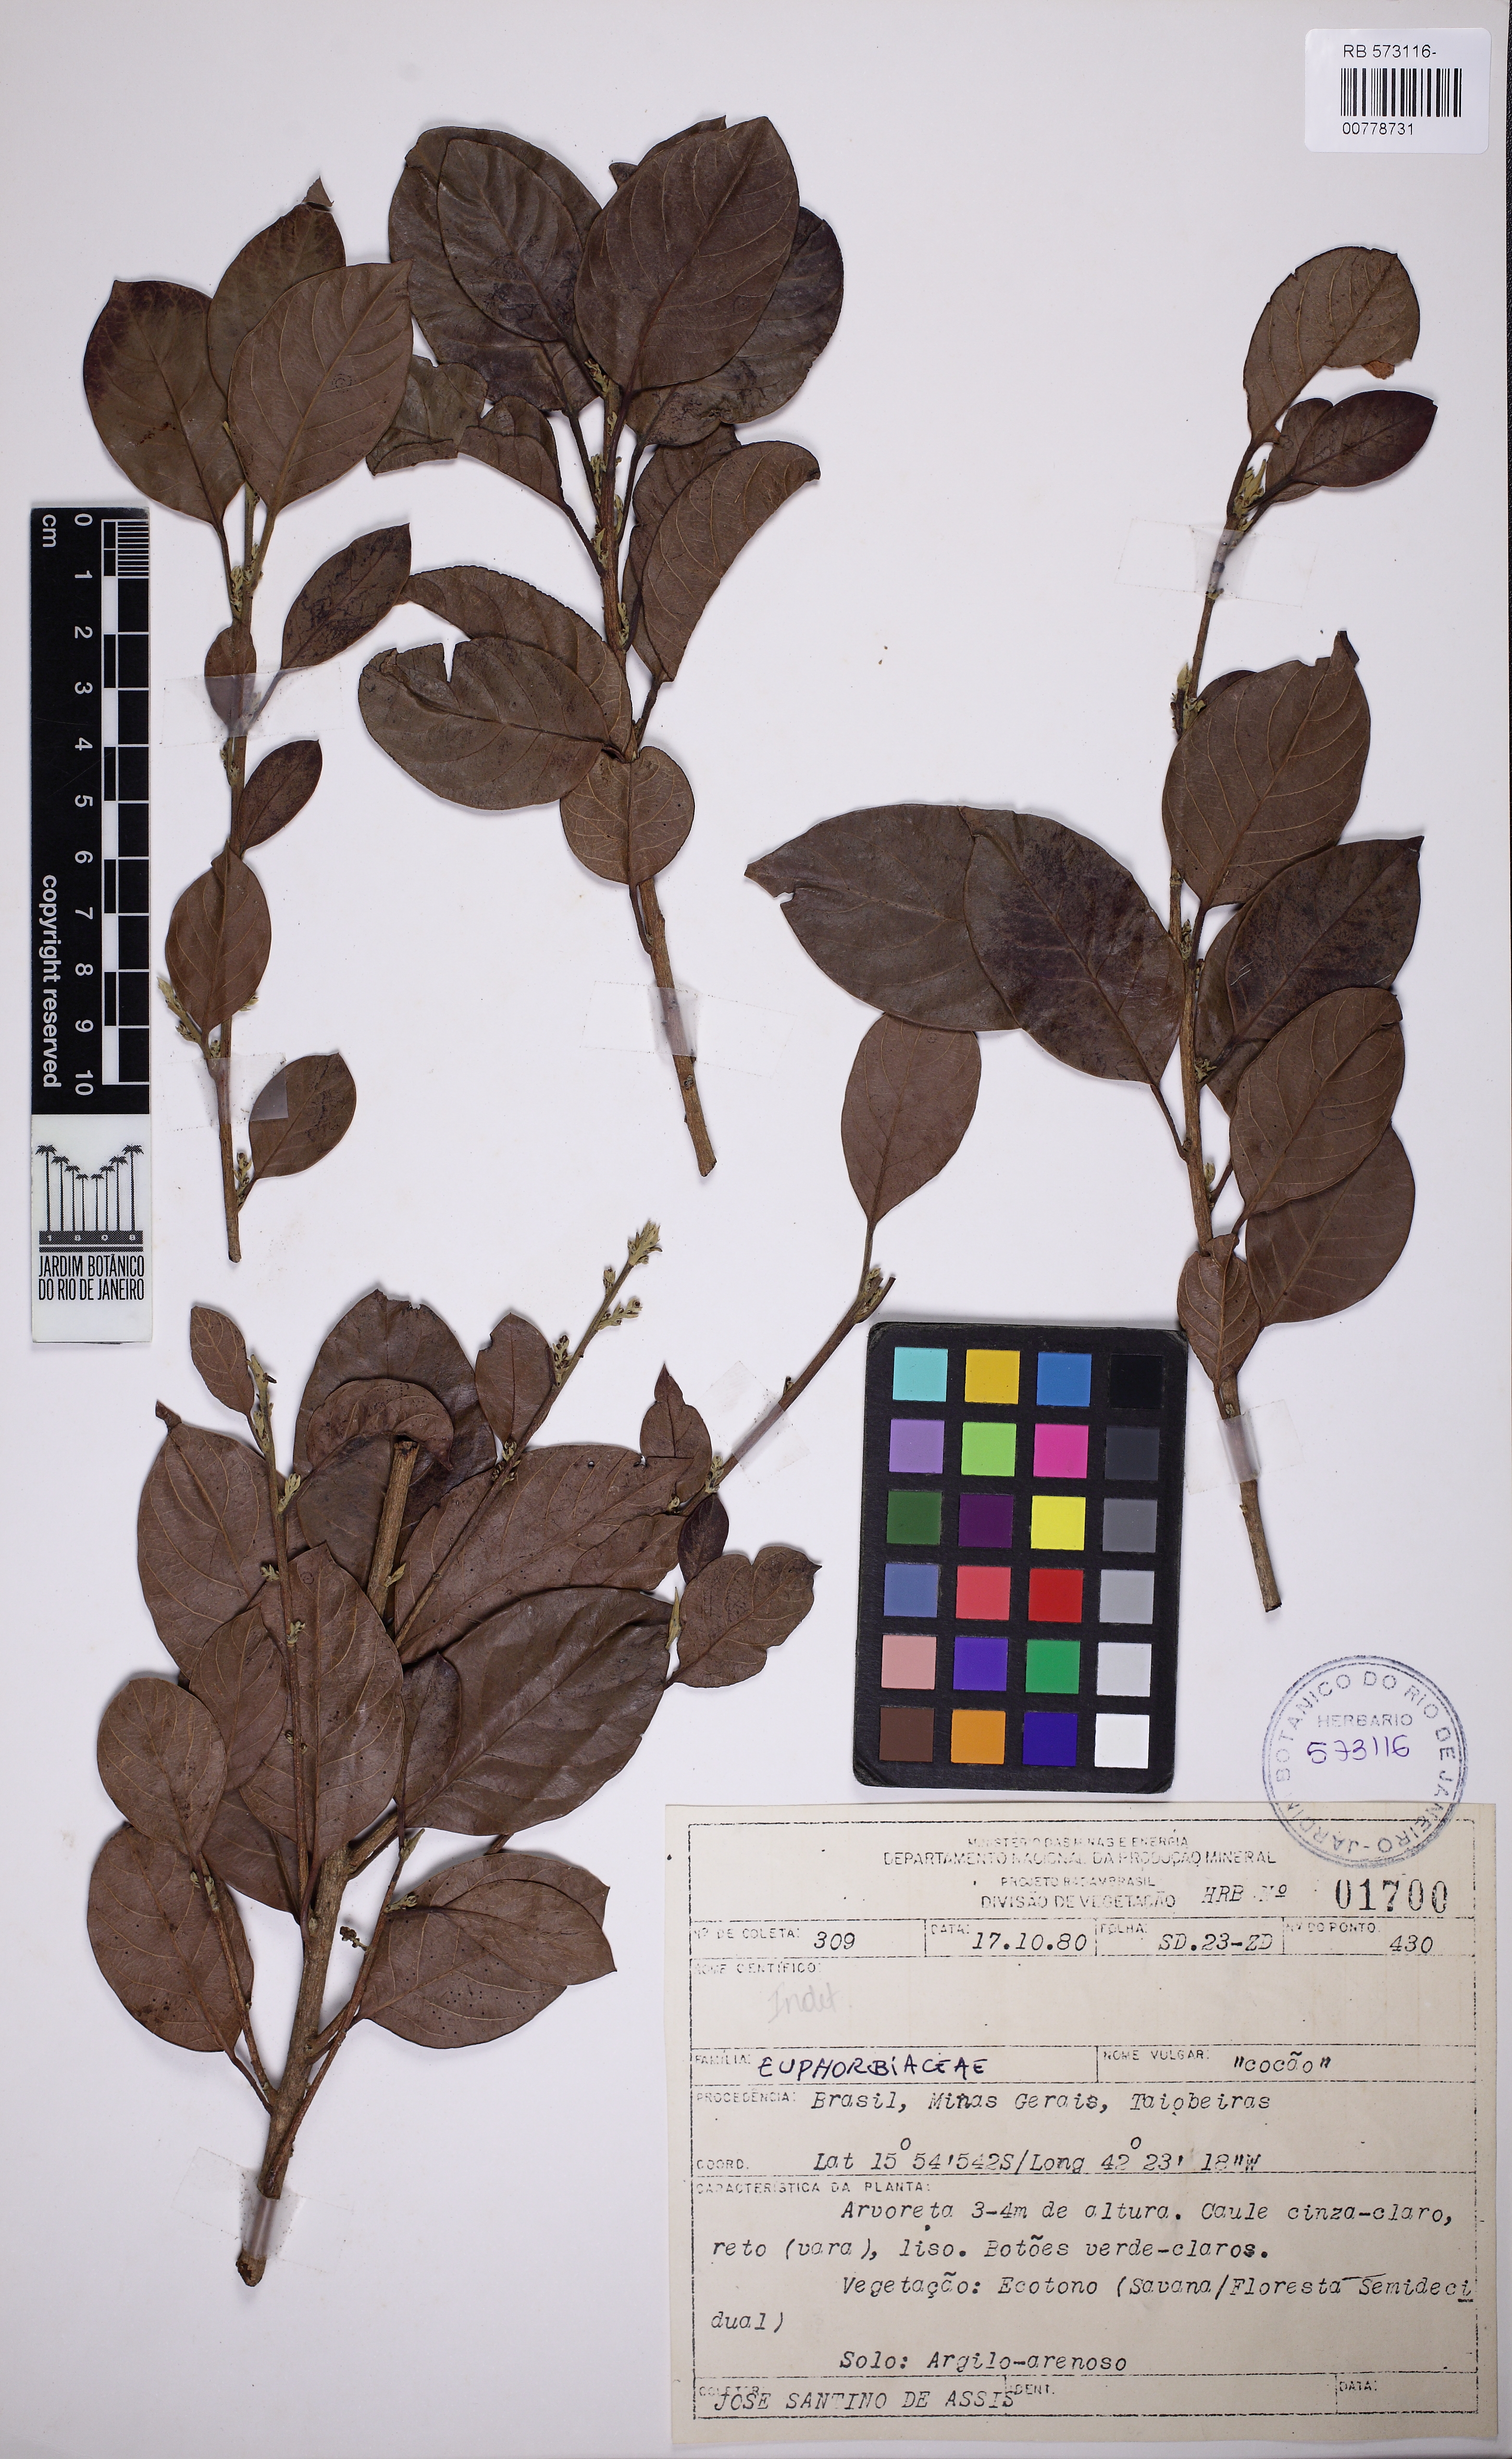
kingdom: Plantae
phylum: Tracheophyta
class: Magnoliopsida
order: Malpighiales
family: Peraceae
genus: Pogonophora
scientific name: Pogonophora schomburgkiana
